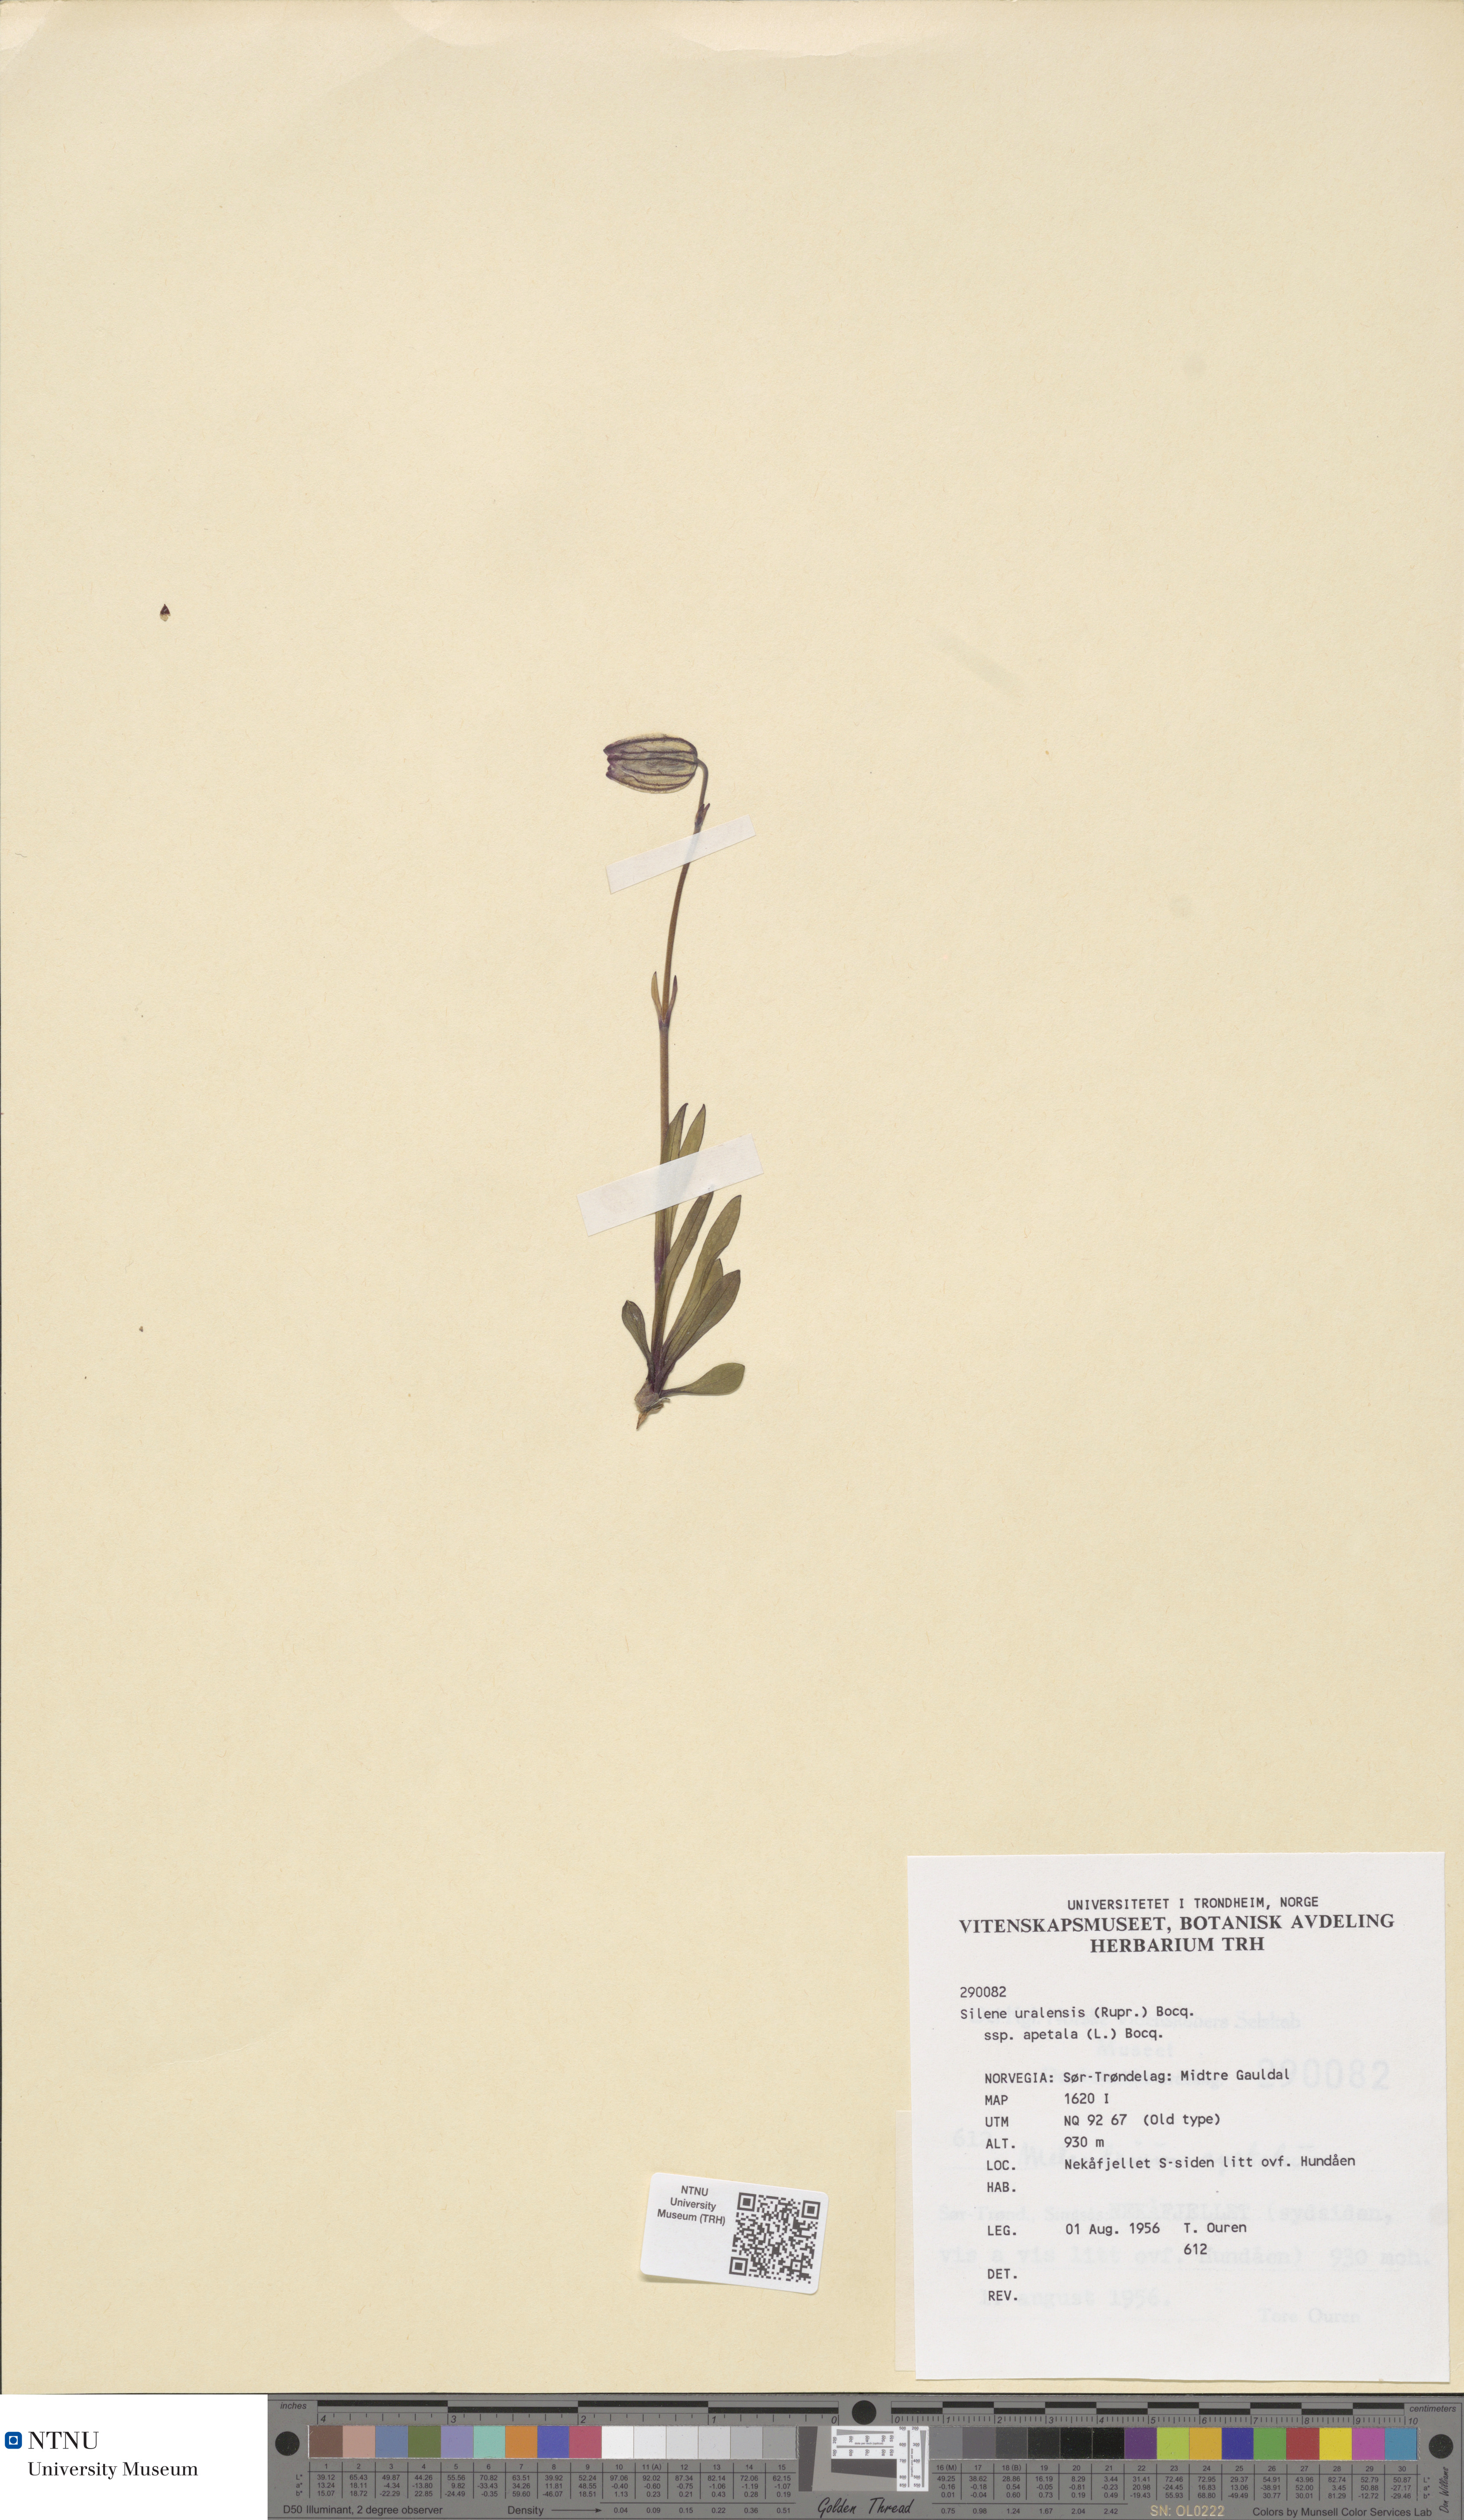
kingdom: Plantae
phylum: Tracheophyta
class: Magnoliopsida
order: Caryophyllales
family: Caryophyllaceae
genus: Silene
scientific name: Silene wahlbergella
